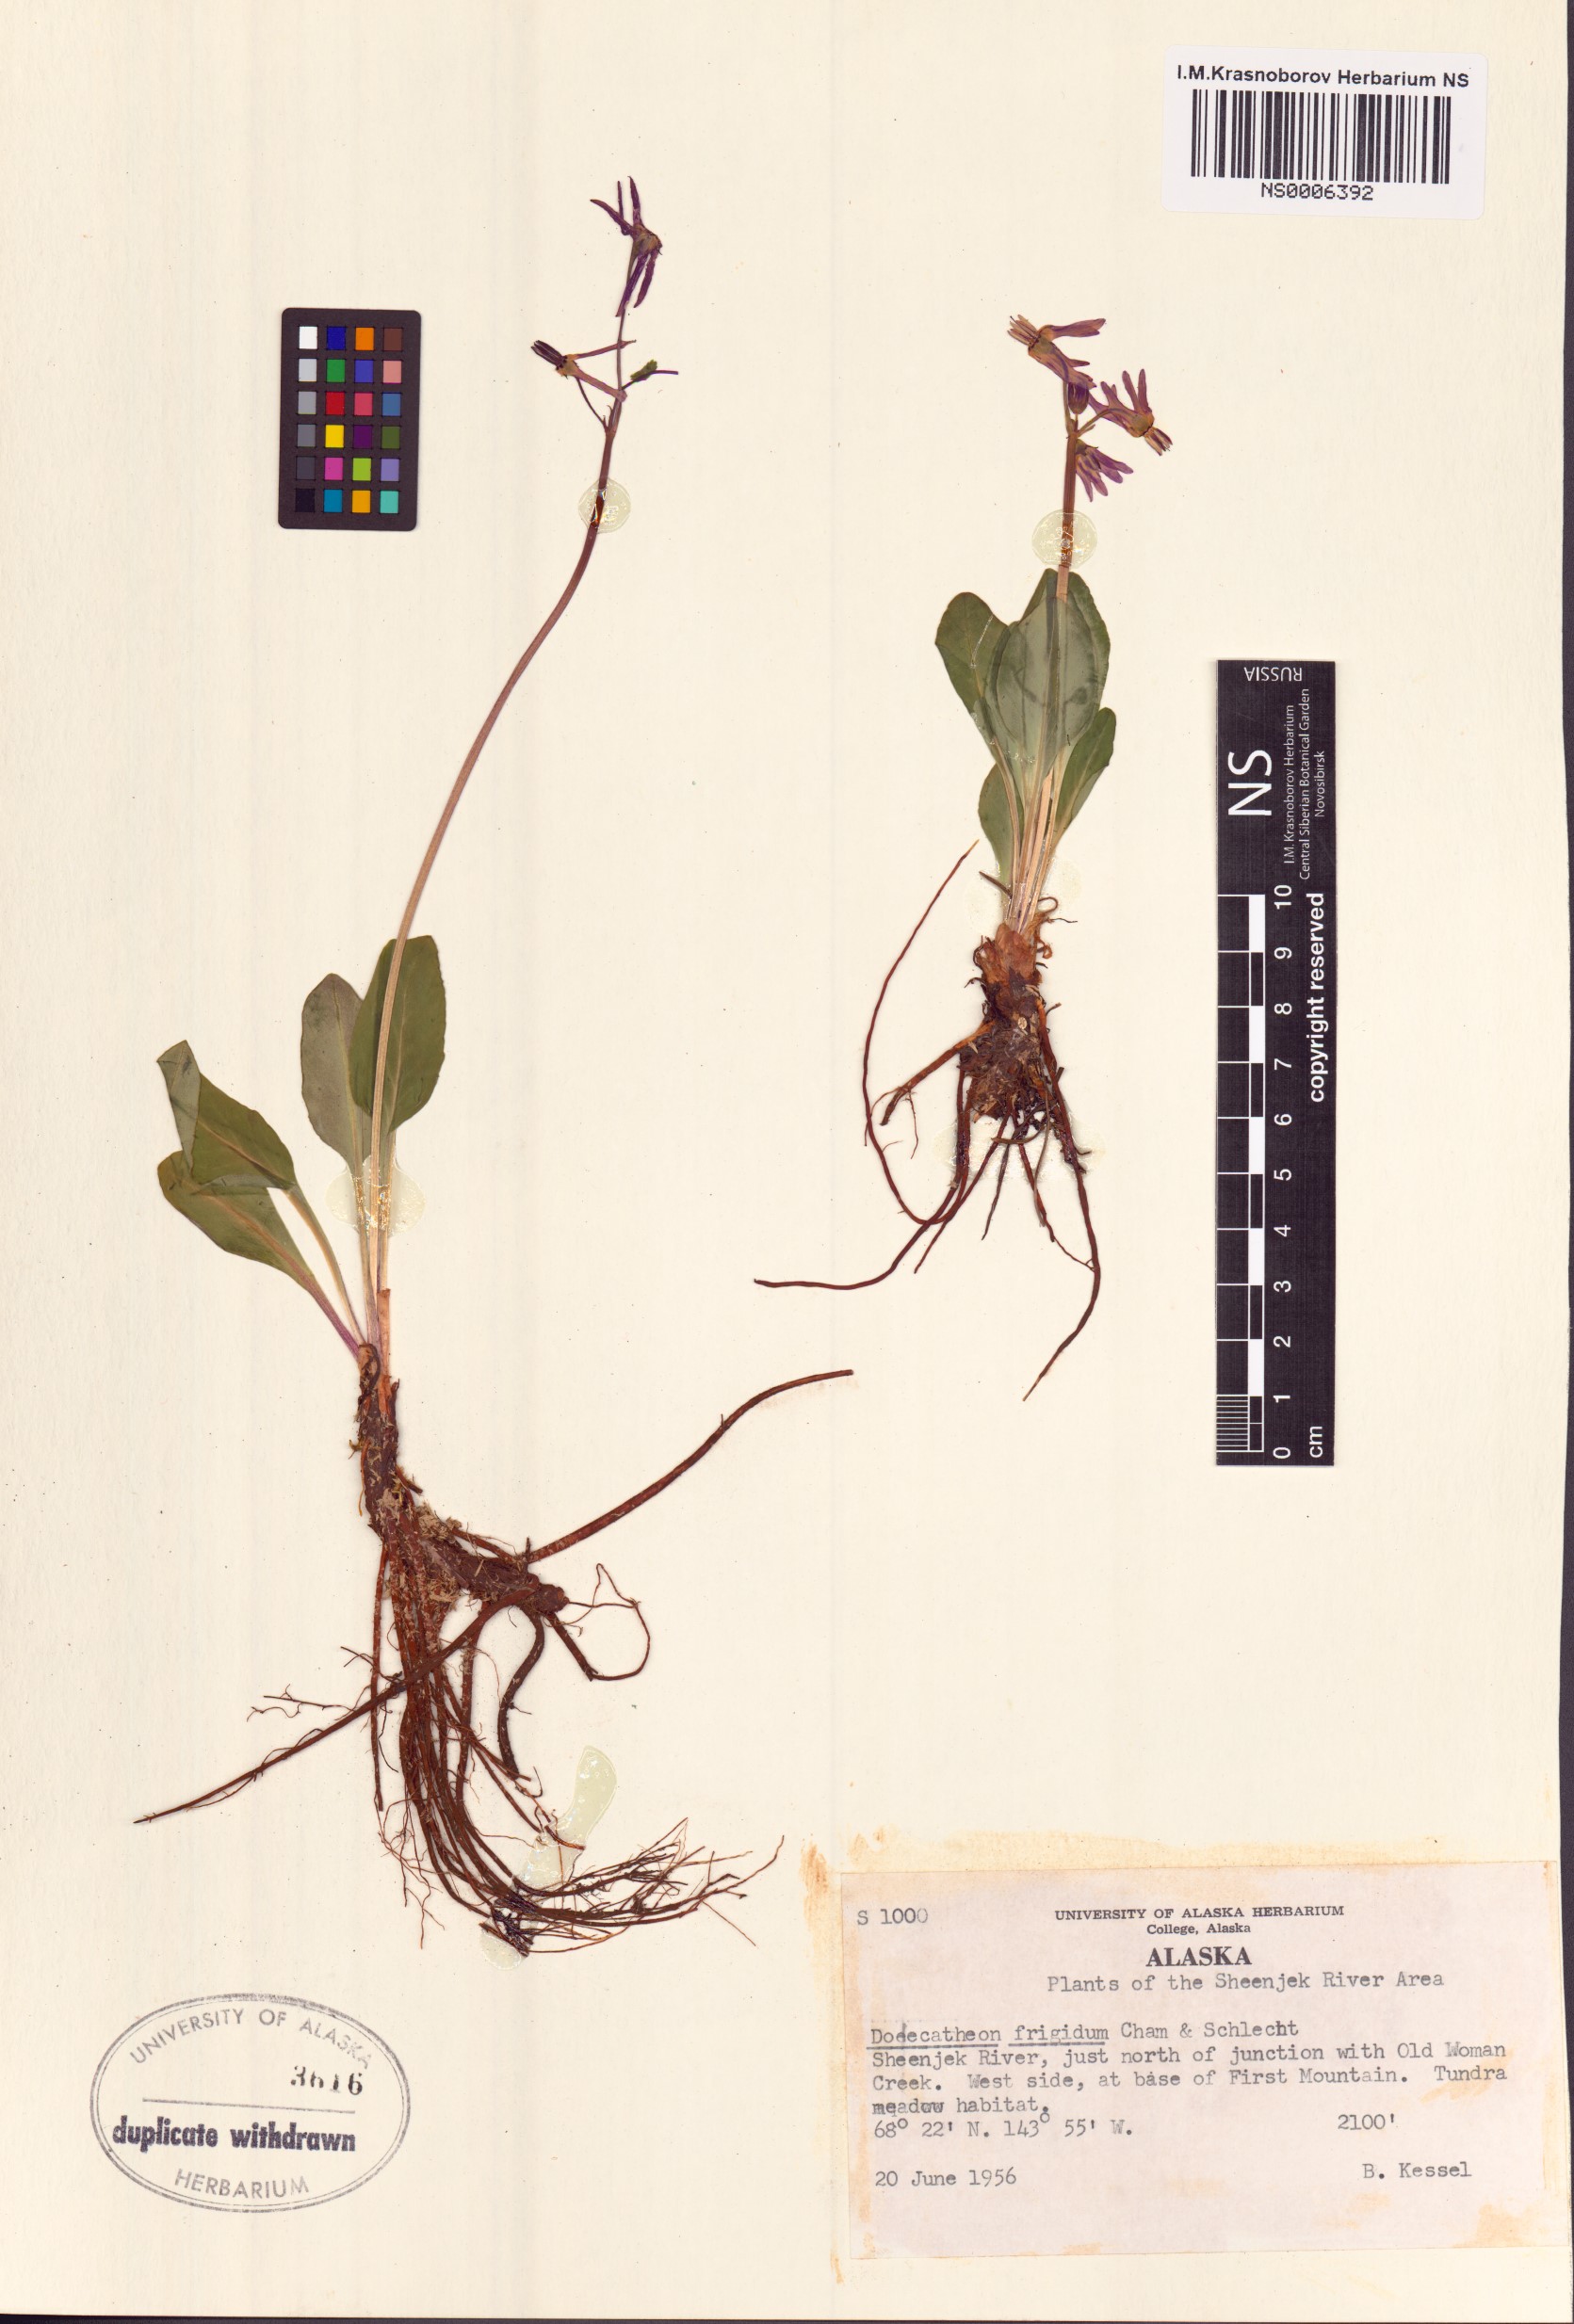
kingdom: Plantae
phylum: Tracheophyta
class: Magnoliopsida
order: Ericales
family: Primulaceae
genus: Dodecatheon
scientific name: Dodecatheon frigidum
